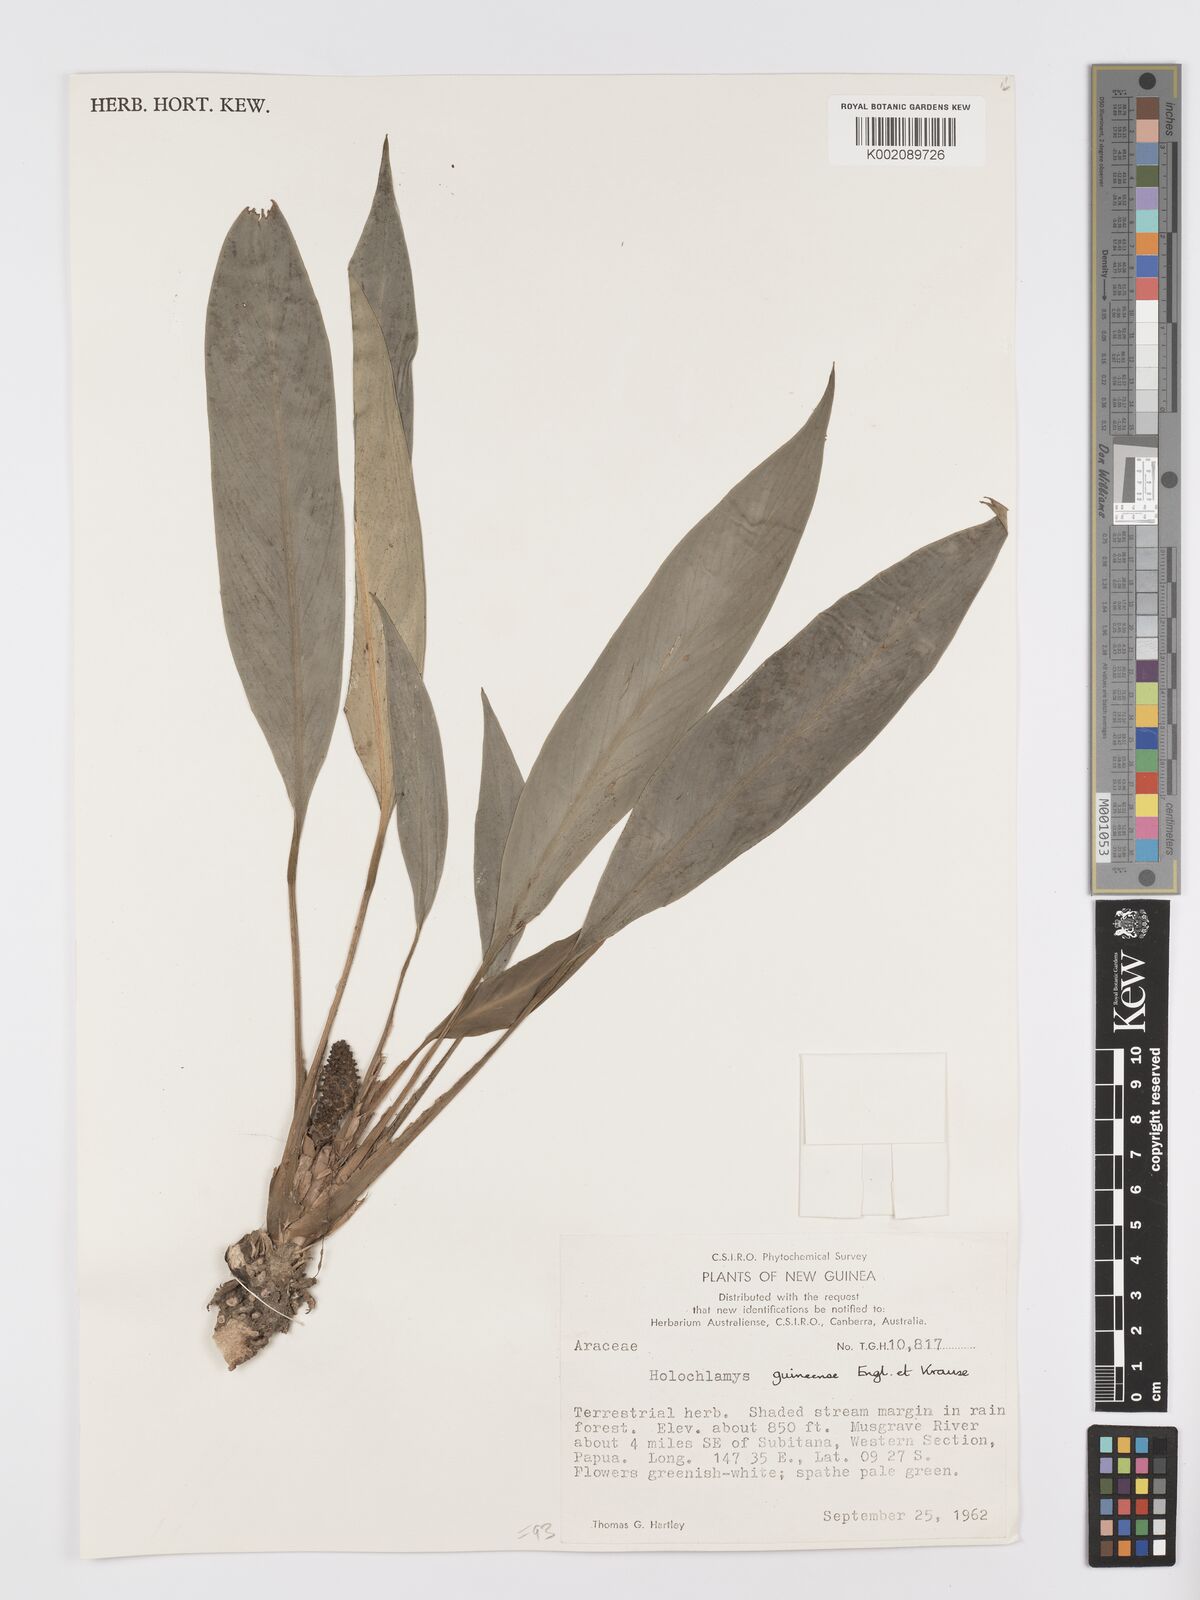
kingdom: Plantae
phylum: Tracheophyta
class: Liliopsida
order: Alismatales
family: Araceae
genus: Holochlamys
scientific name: Holochlamys beccarii
